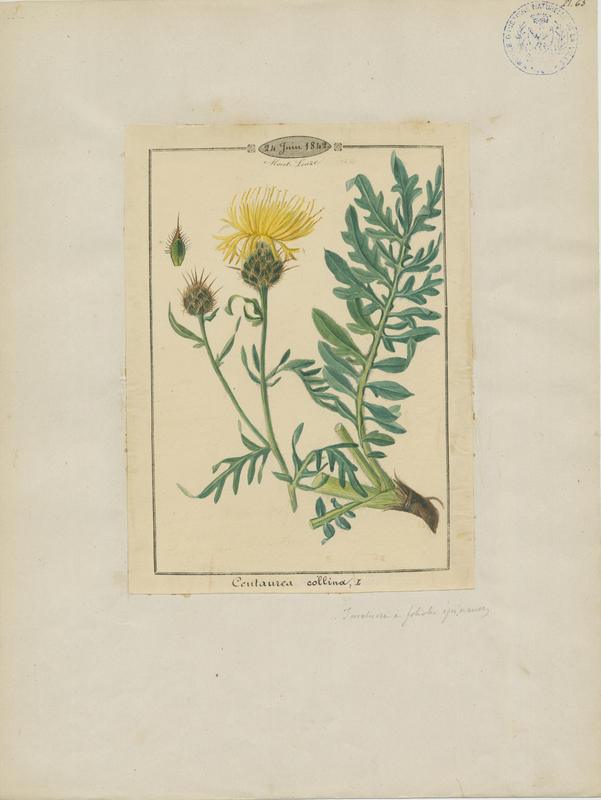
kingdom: Plantae
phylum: Tracheophyta
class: Magnoliopsida
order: Asterales
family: Asteraceae
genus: Centaurea
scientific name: Centaurea collina
